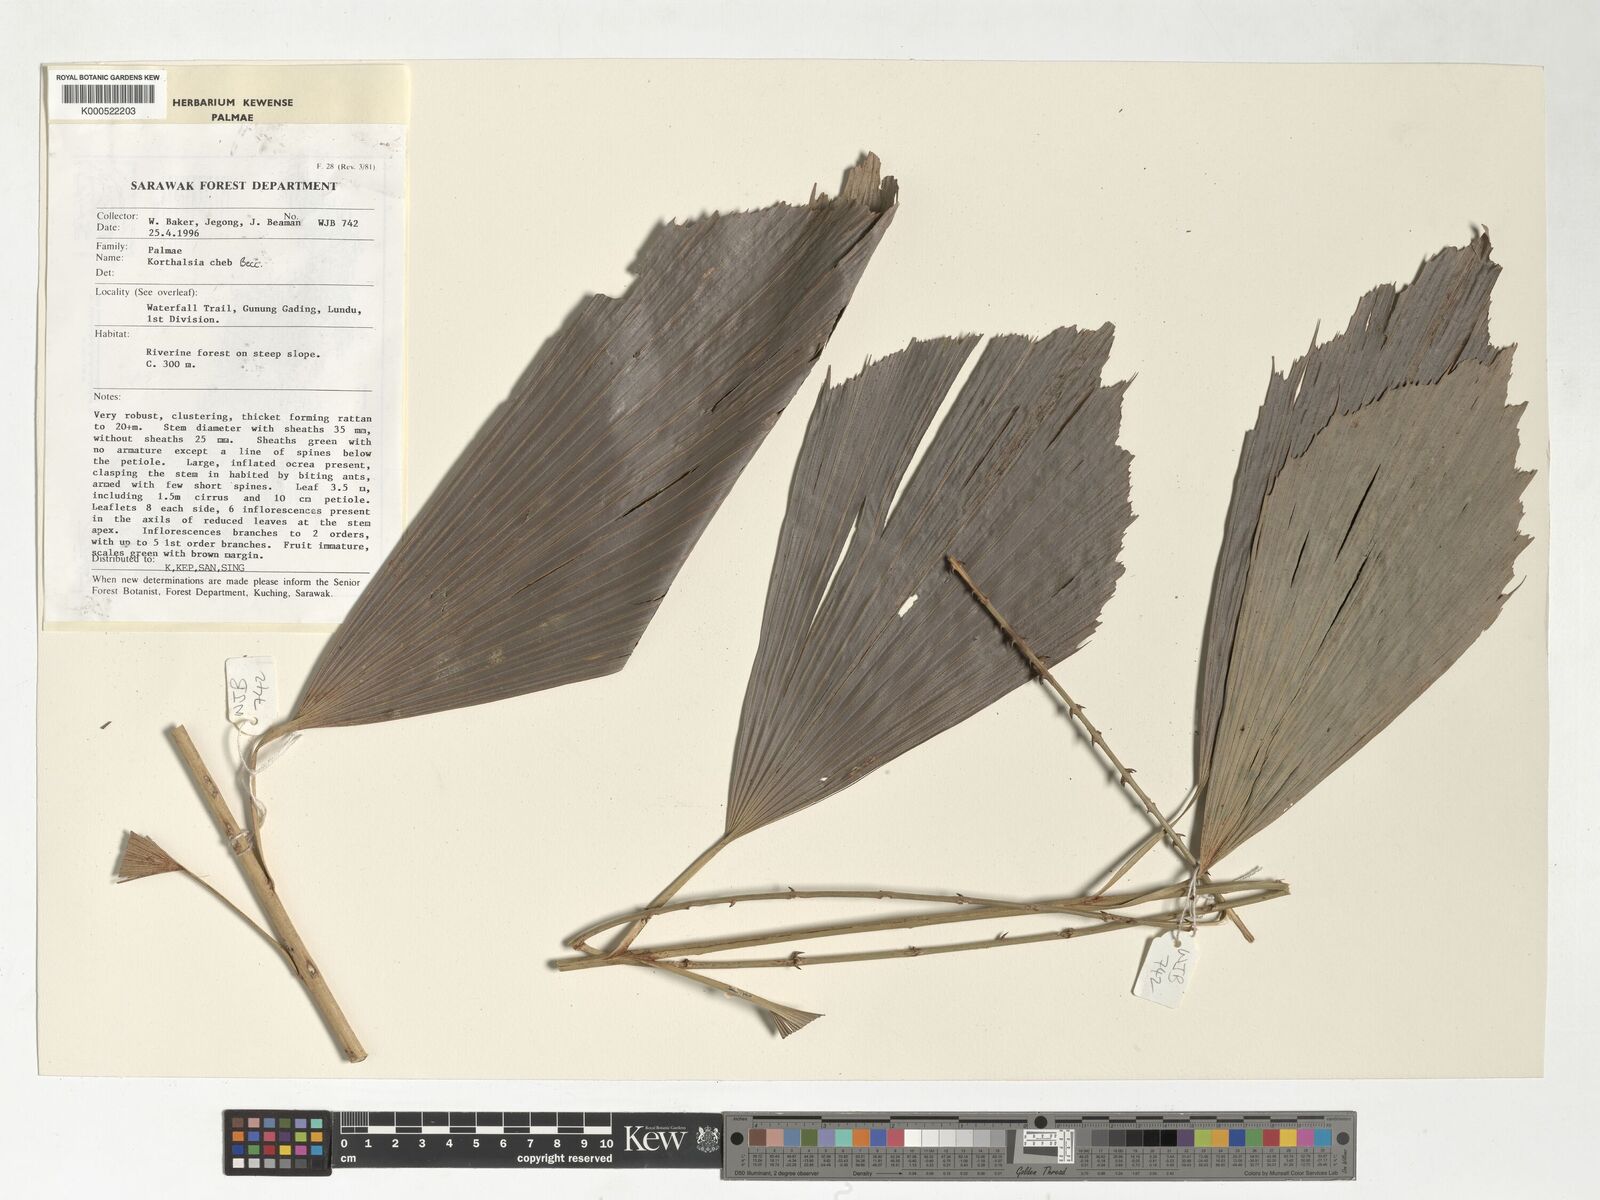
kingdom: Plantae
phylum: Tracheophyta
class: Liliopsida
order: Arecales
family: Arecaceae
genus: Korthalsia
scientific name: Korthalsia cheb
